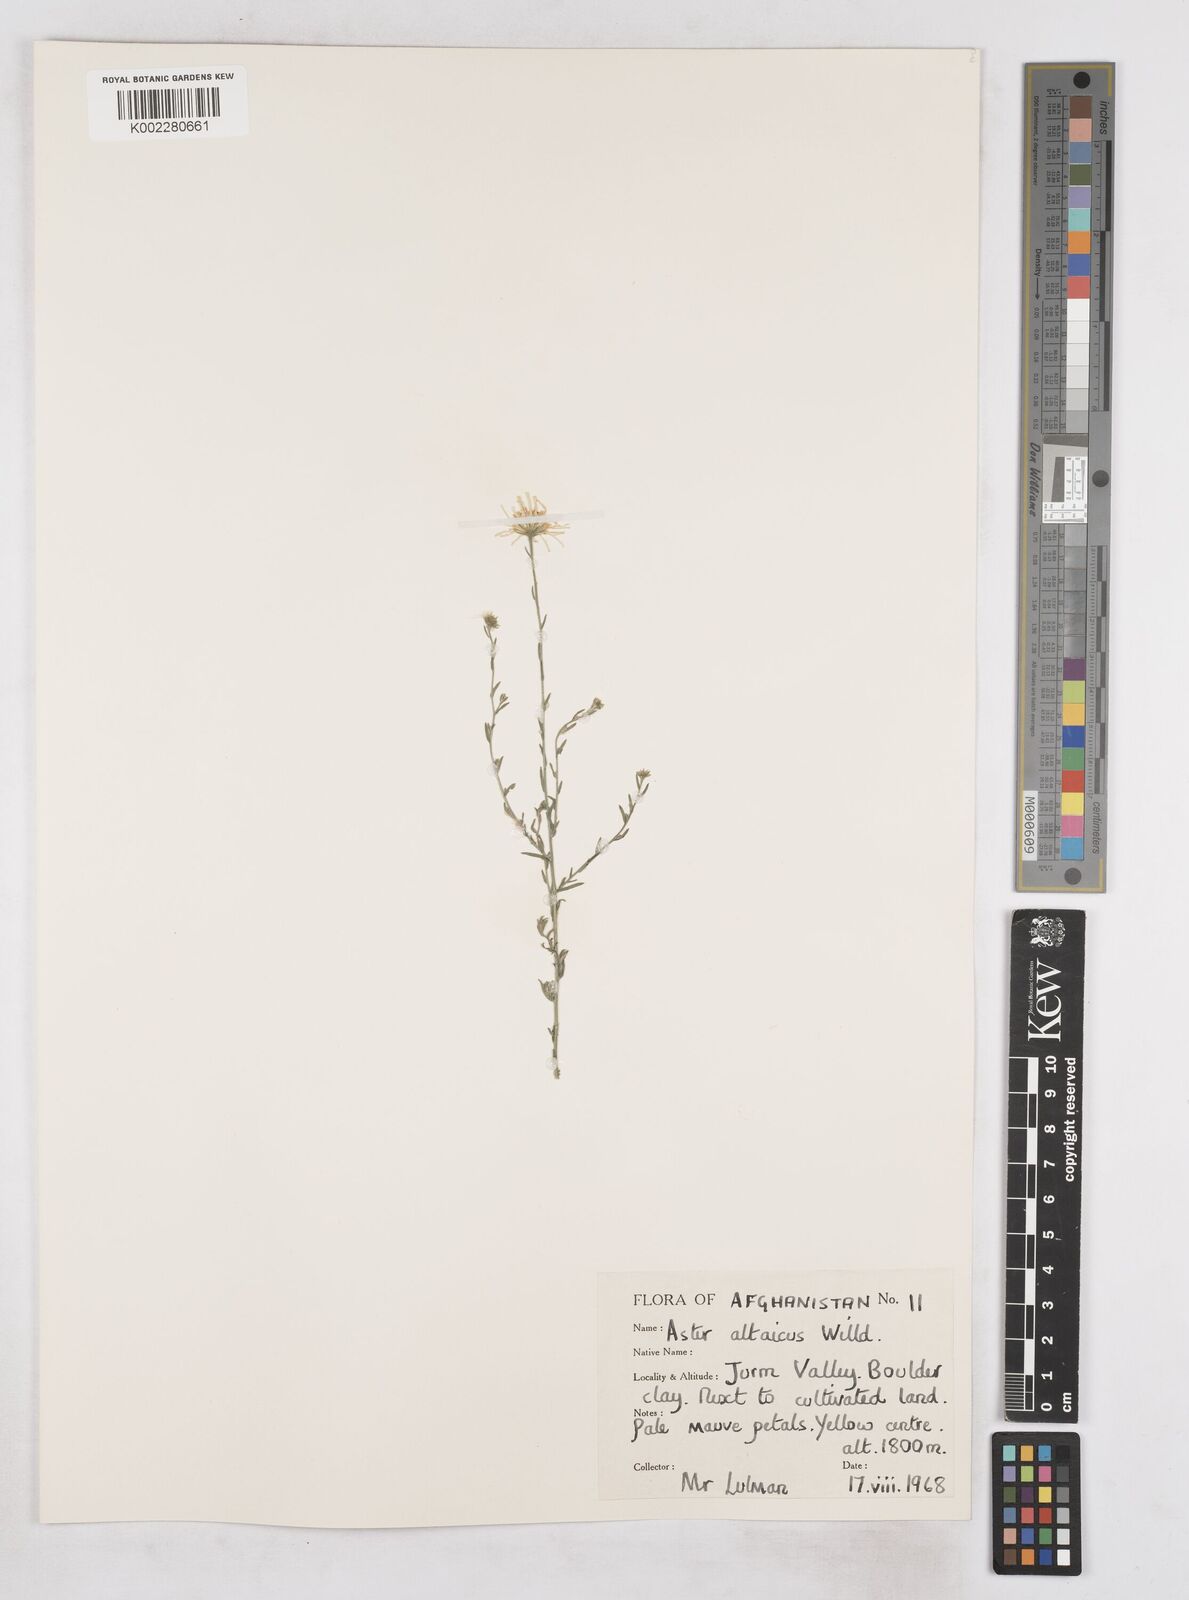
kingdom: Plantae
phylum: Tracheophyta
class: Magnoliopsida
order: Asterales
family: Asteraceae
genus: Heteropappus
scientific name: Heteropappus altaicus
